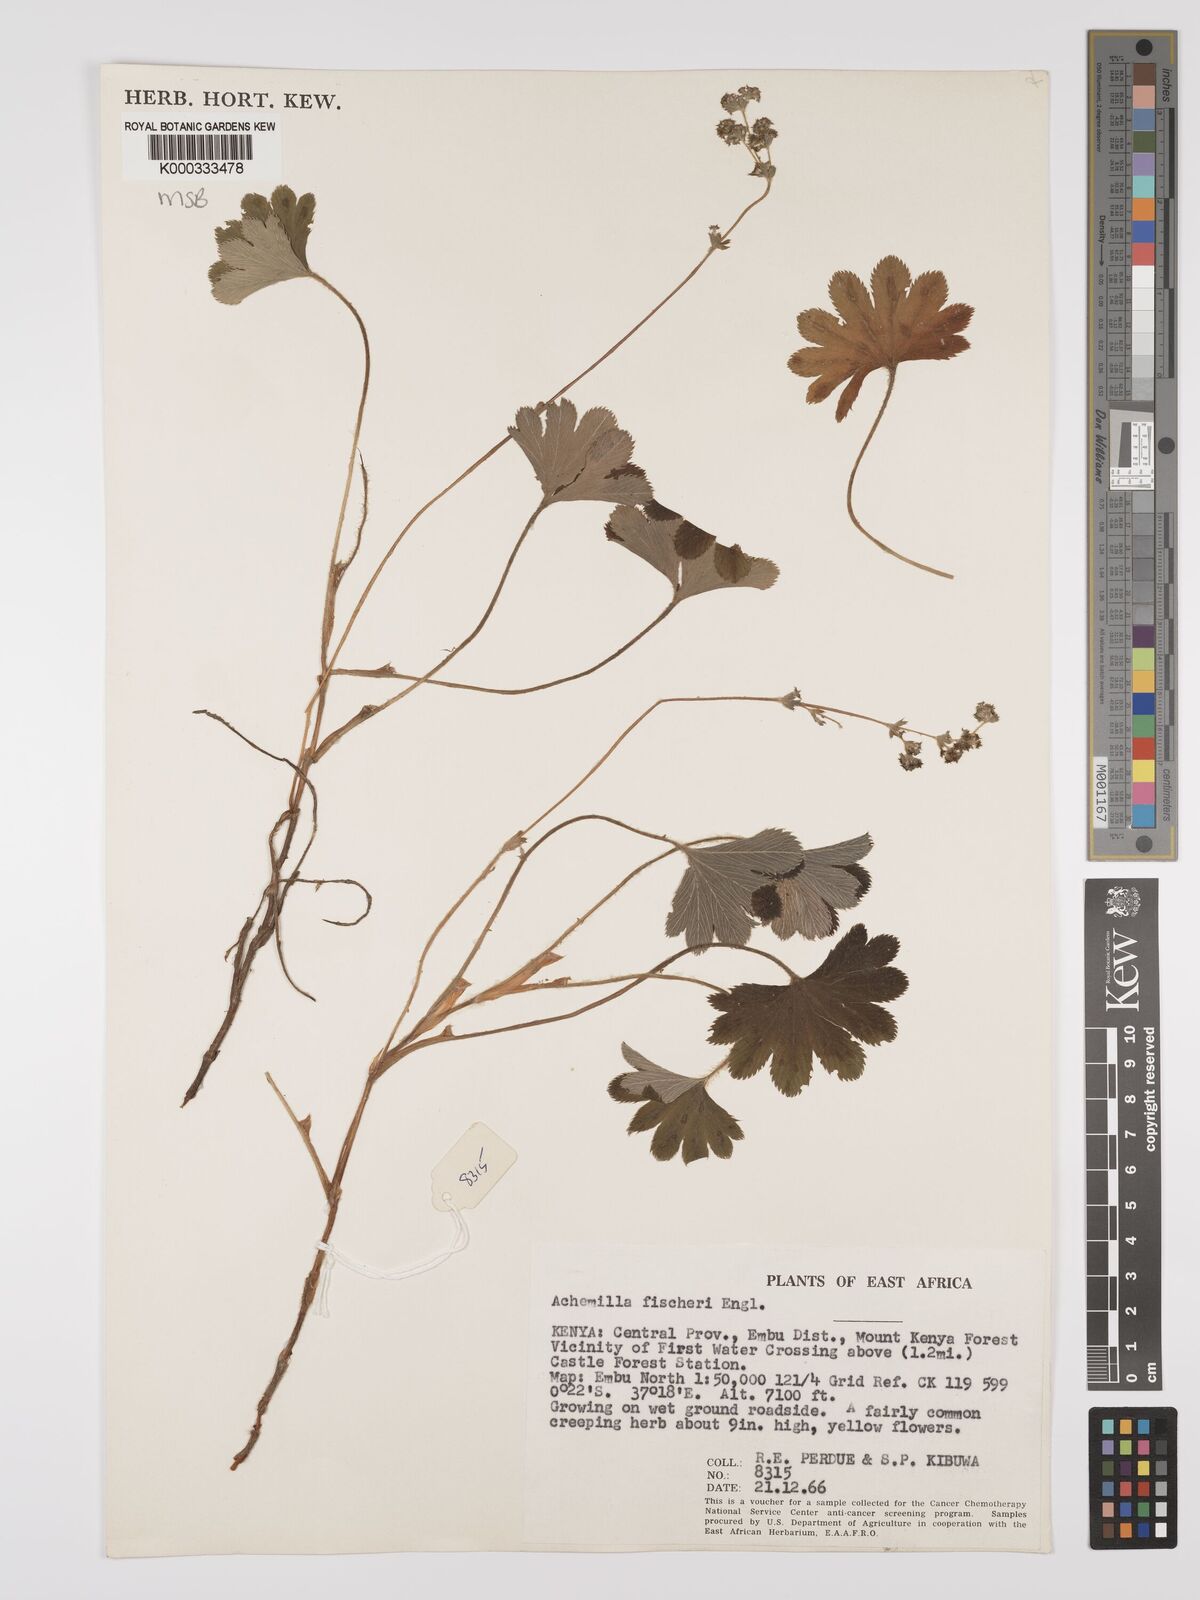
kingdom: Plantae
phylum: Tracheophyta
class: Magnoliopsida
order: Rosales
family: Rosaceae
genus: Alchemilla
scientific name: Alchemilla fischeri
